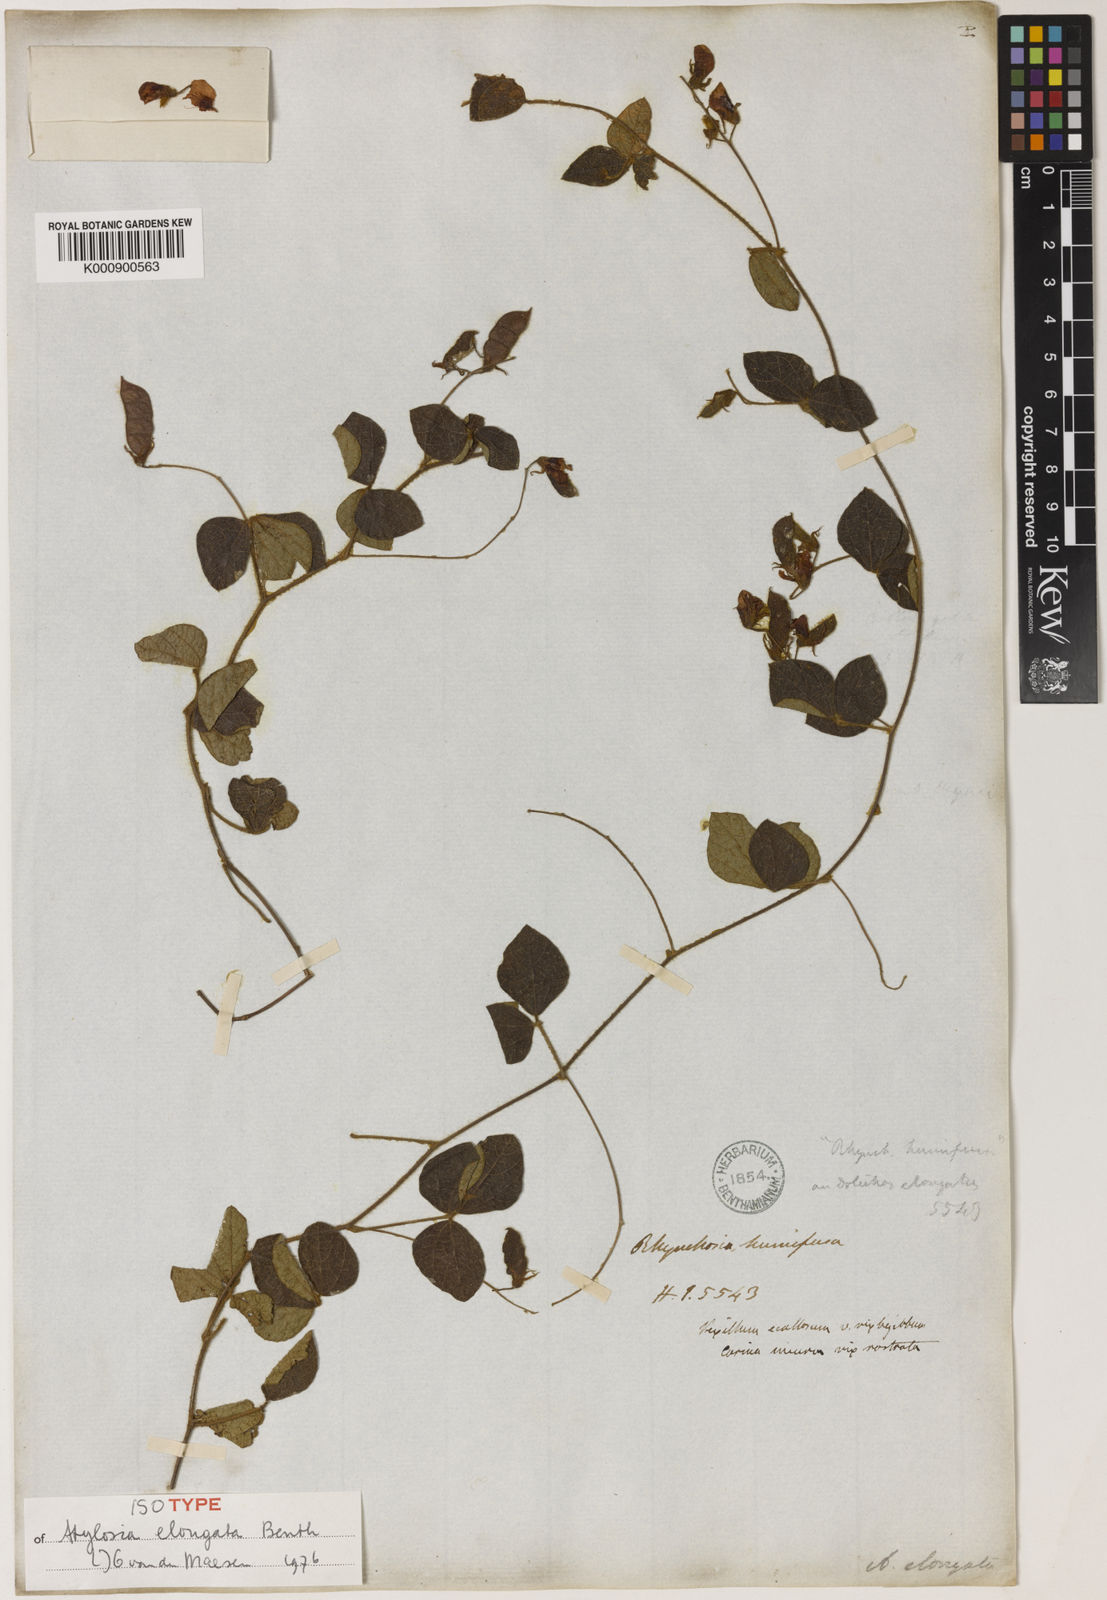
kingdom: Plantae
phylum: Tracheophyta
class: Magnoliopsida
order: Fabales
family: Fabaceae
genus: Cajanus
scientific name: Cajanus elongatus
